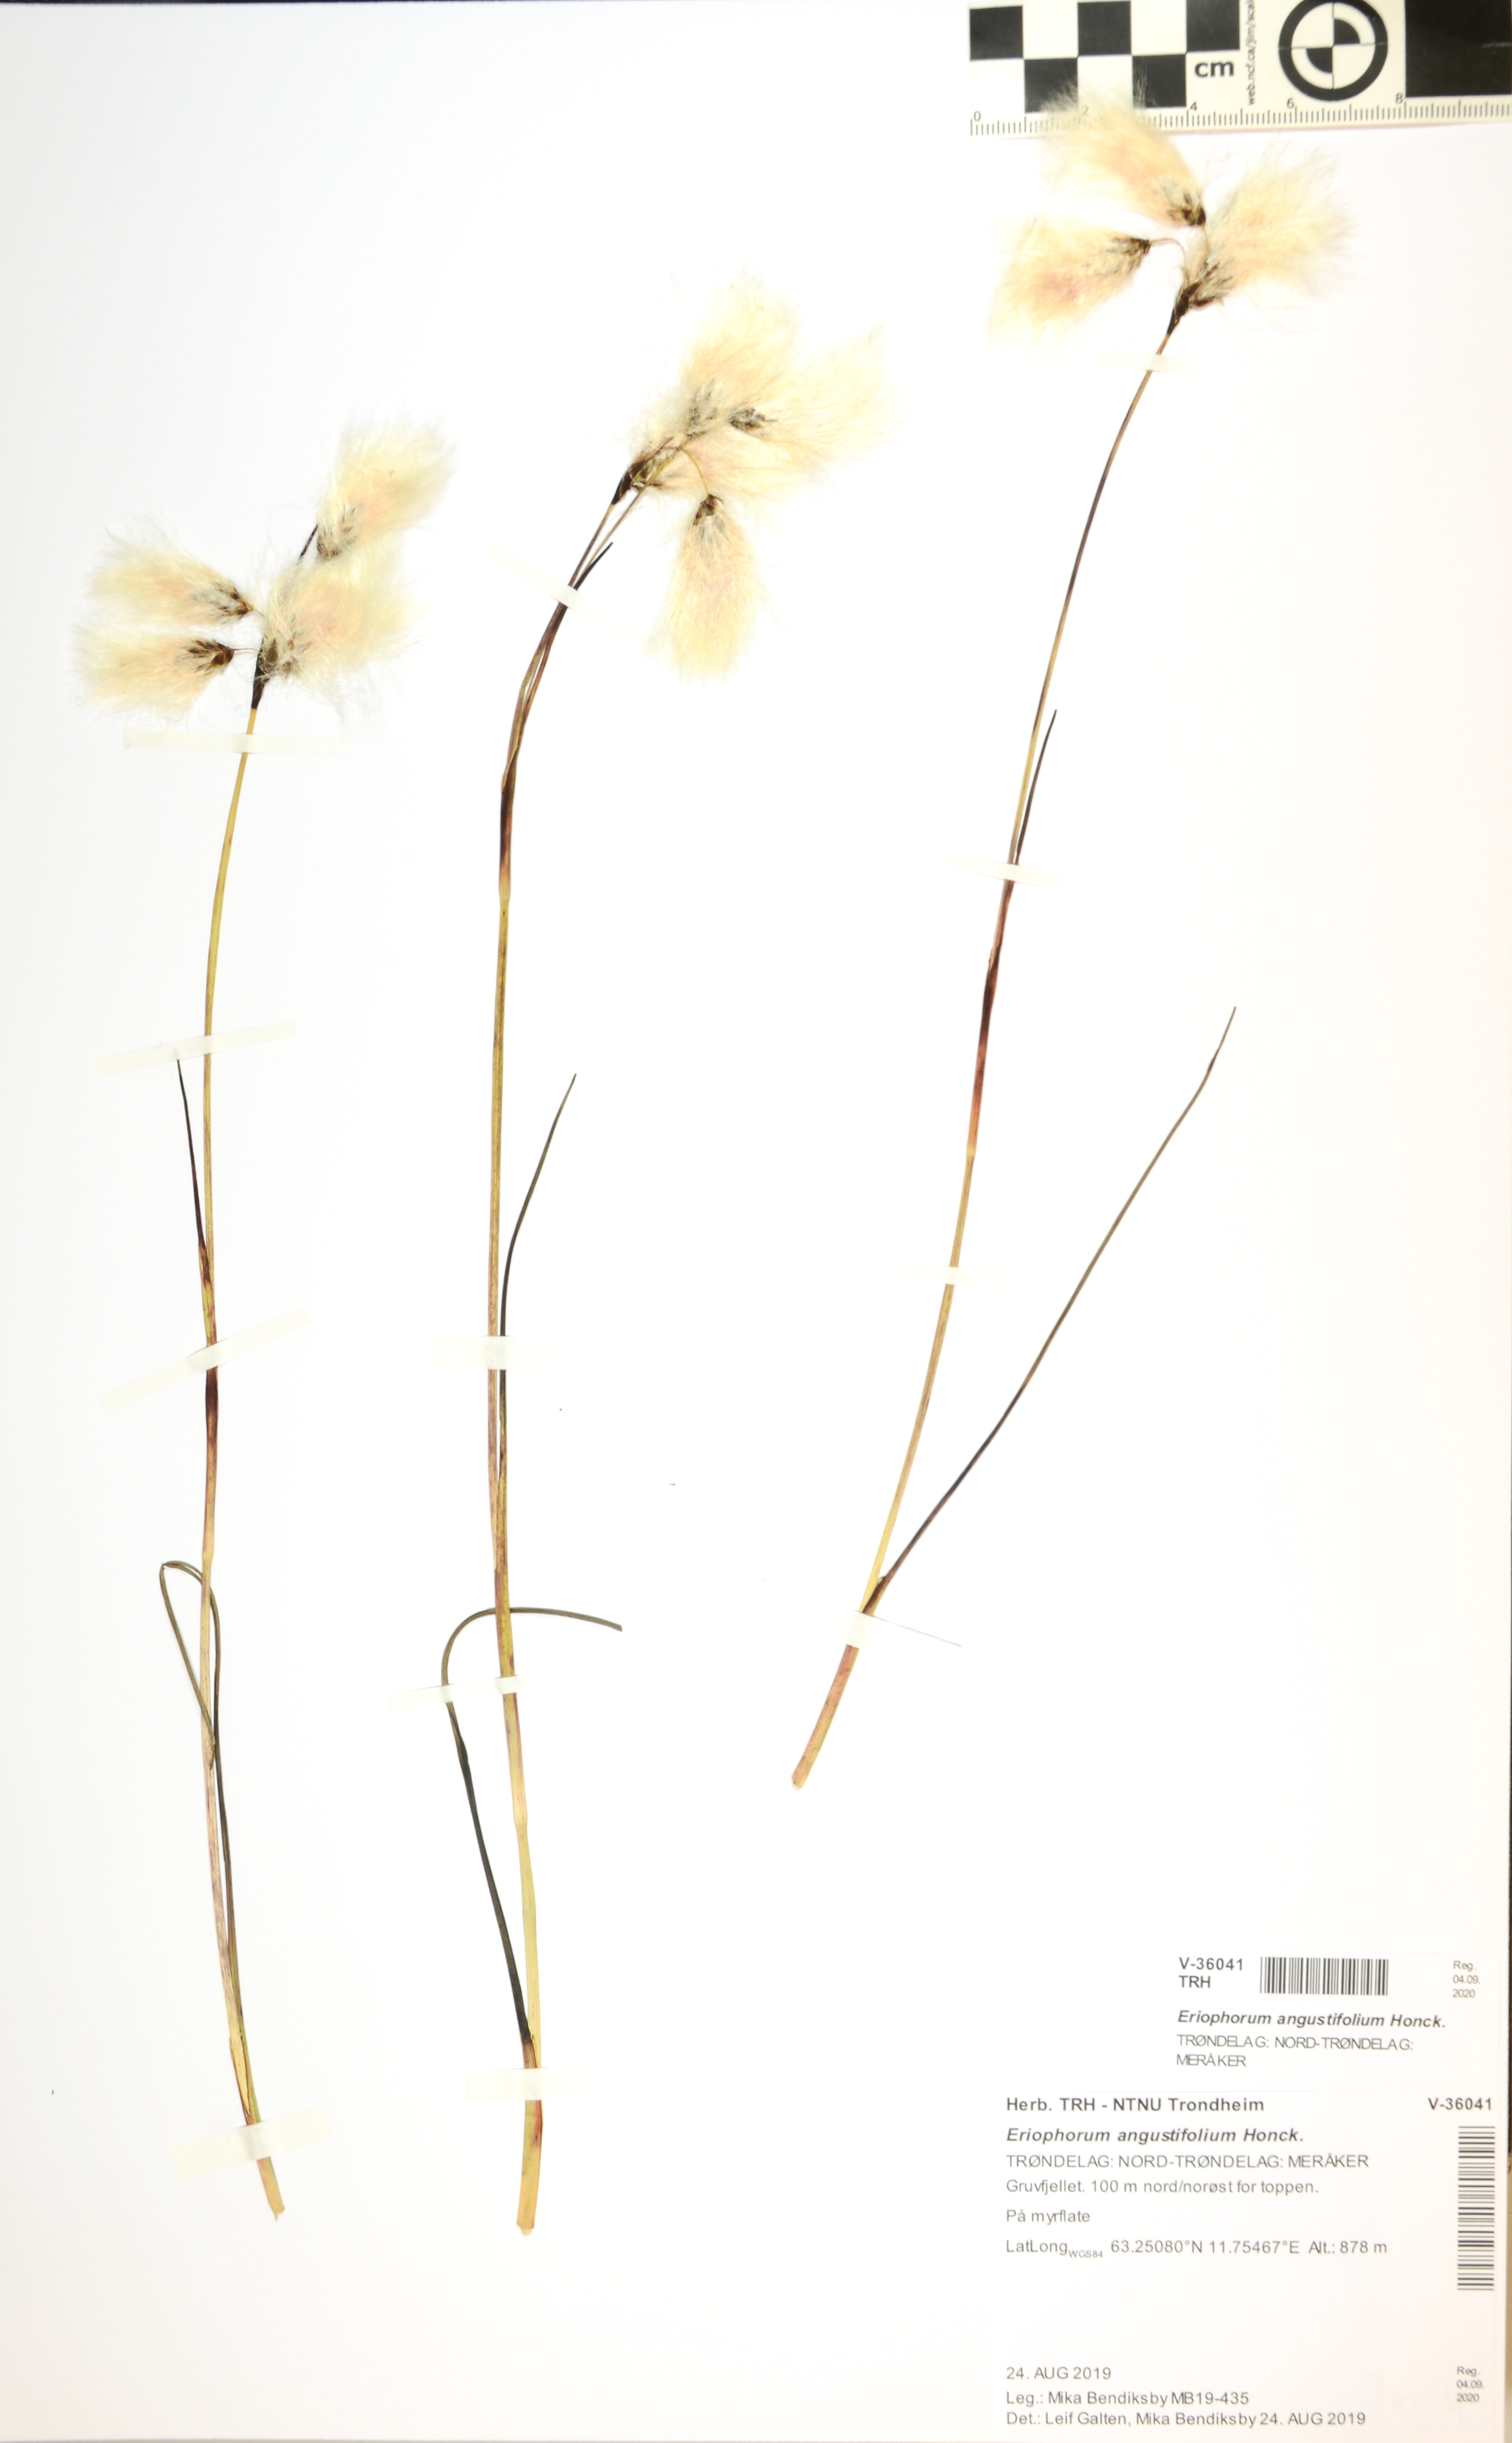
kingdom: Plantae
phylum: Tracheophyta
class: Liliopsida
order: Poales
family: Cyperaceae
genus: Eriophorum
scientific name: Eriophorum angustifolium
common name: Common cottongrass
